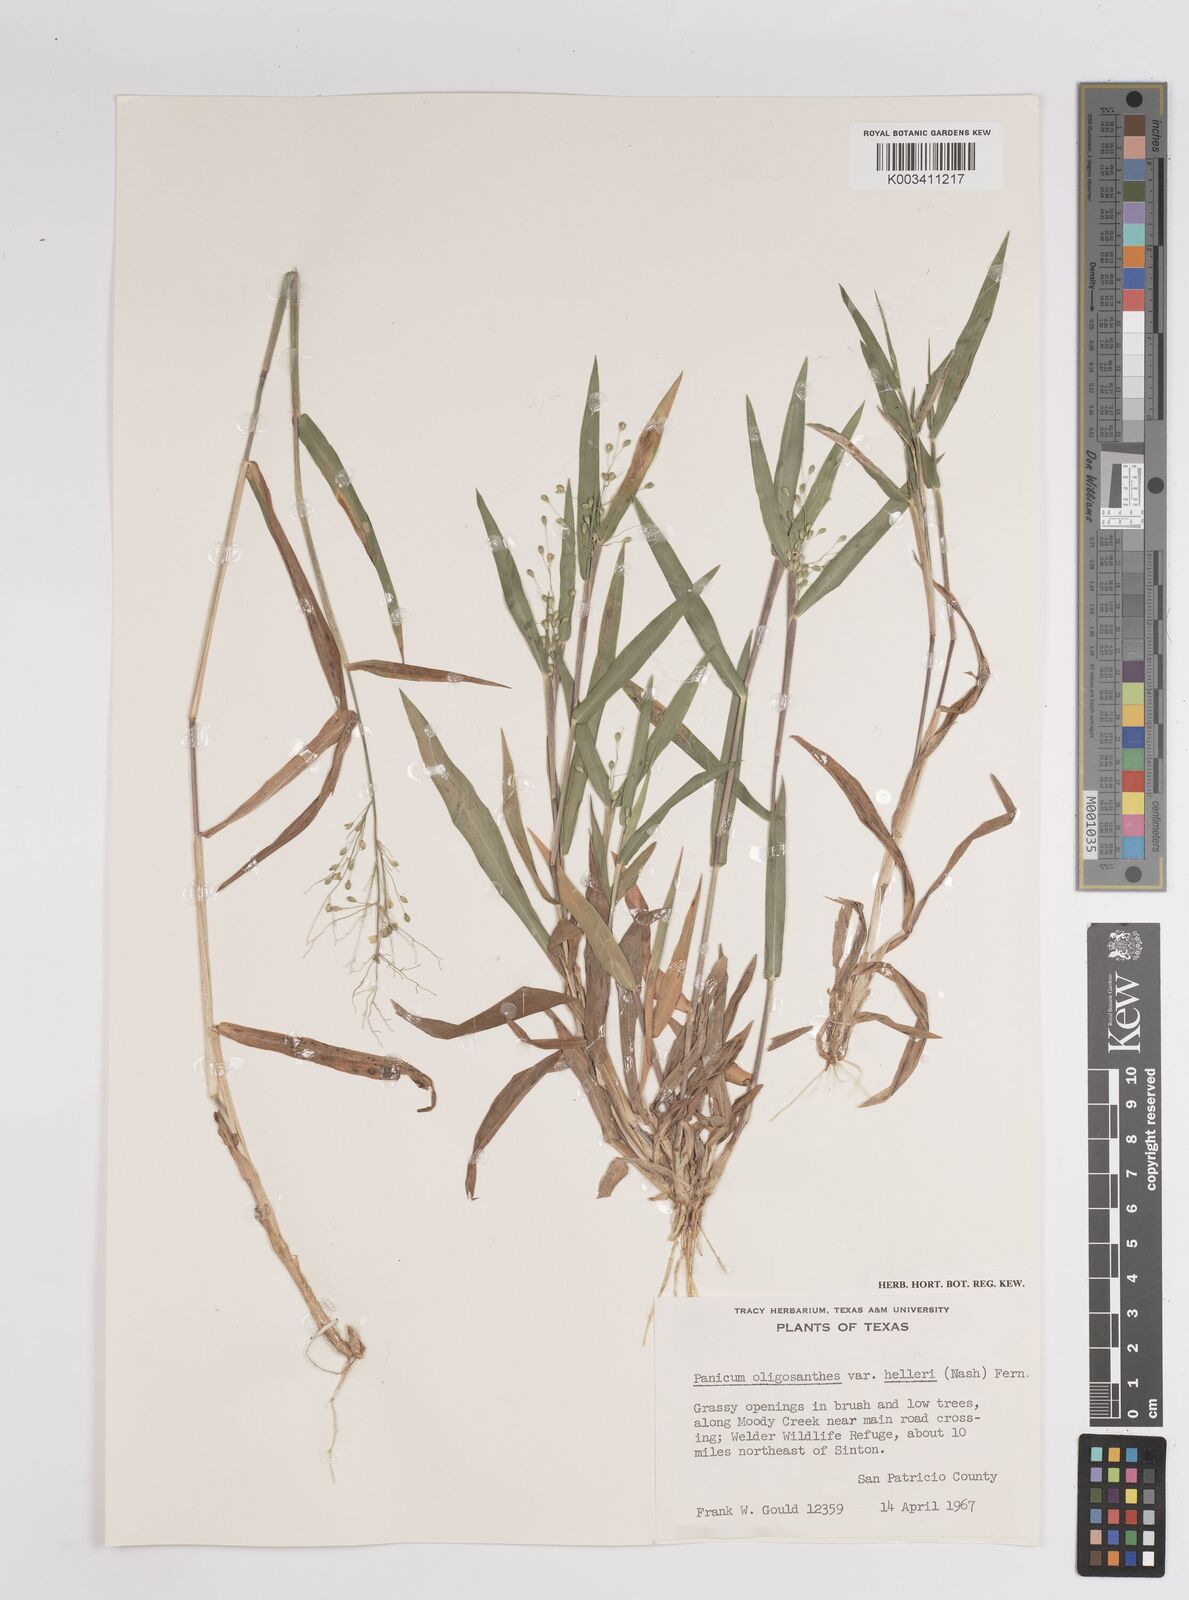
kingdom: Plantae
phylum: Tracheophyta
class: Liliopsida
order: Poales
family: Poaceae
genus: Dichanthelium
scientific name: Dichanthelium oligosanthes
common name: Few-anther obscuregrass
